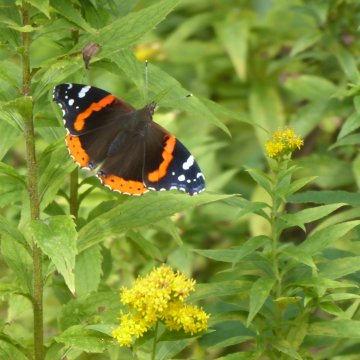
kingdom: Animalia
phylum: Arthropoda
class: Insecta
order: Lepidoptera
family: Nymphalidae
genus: Vanessa
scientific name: Vanessa atalanta
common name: Red Admiral
